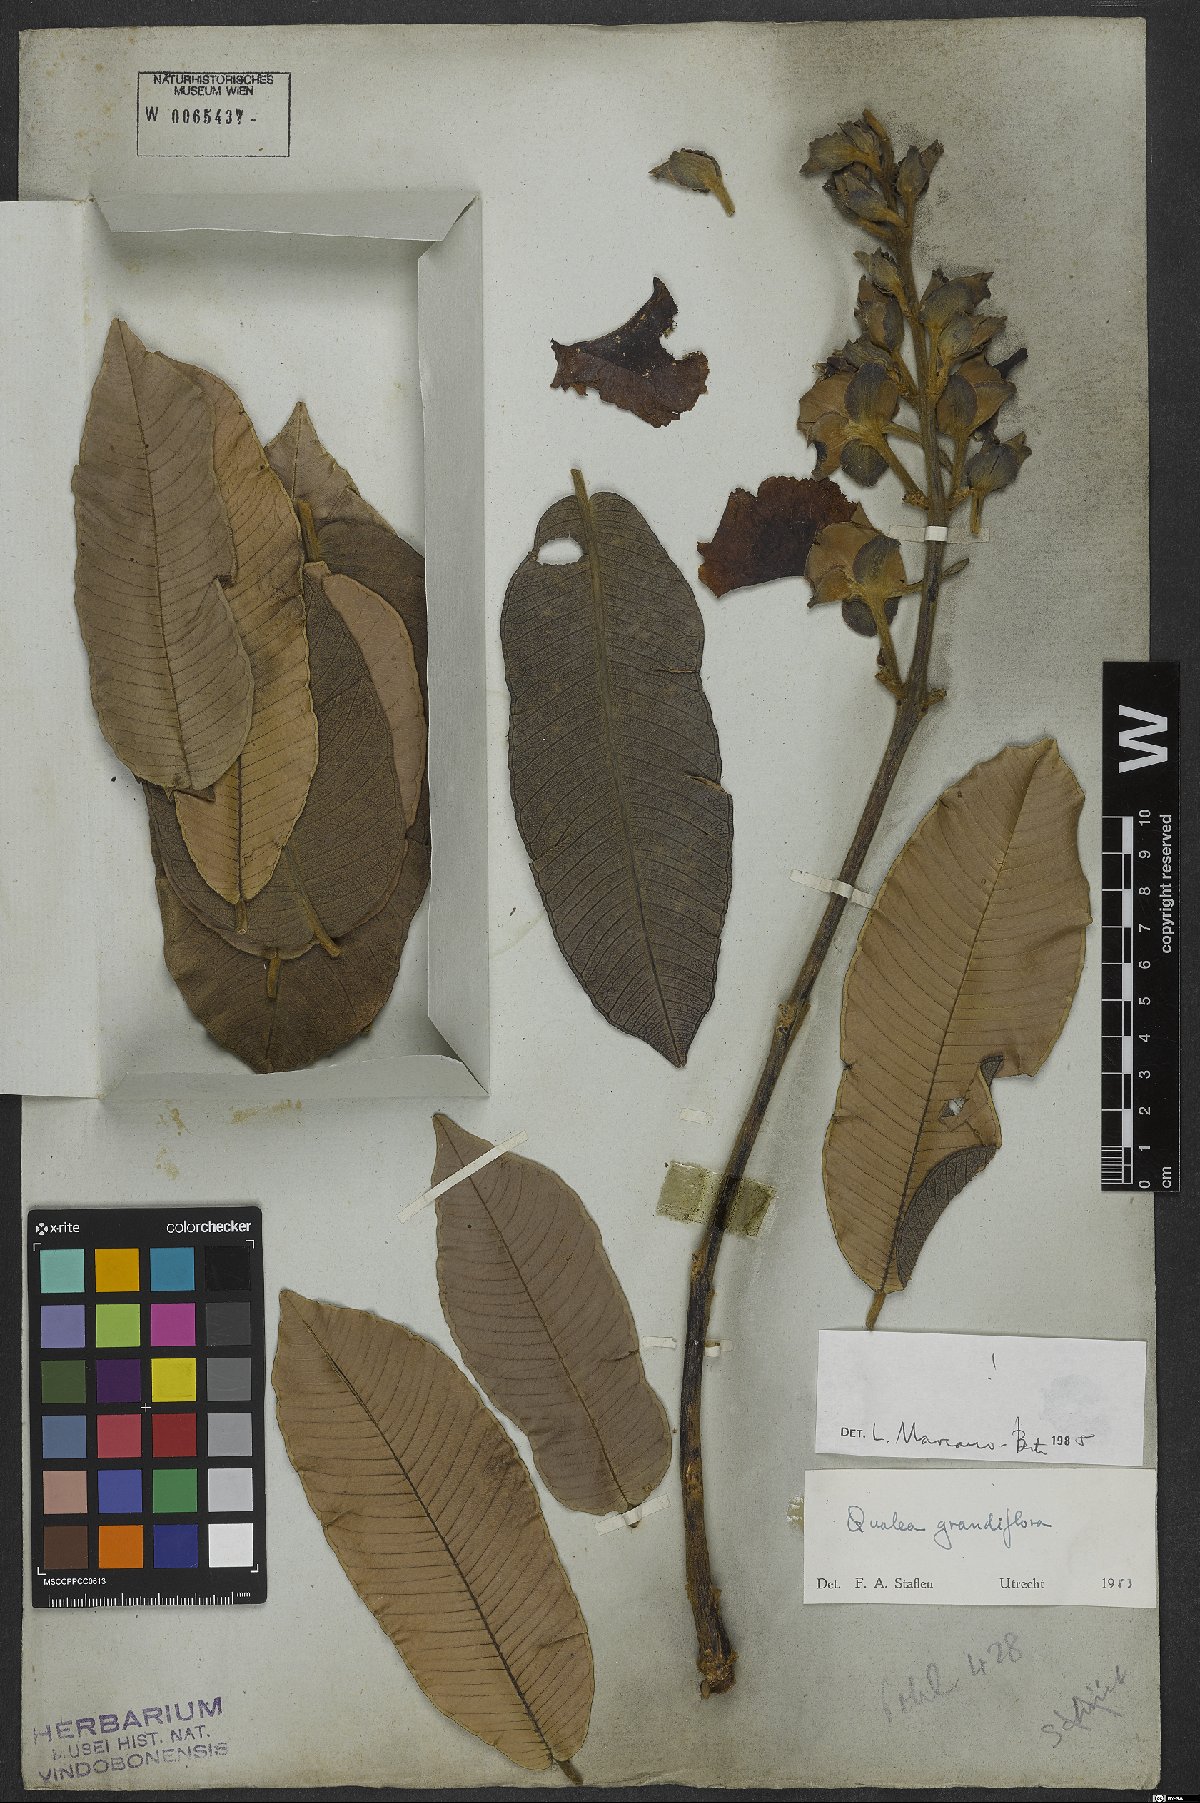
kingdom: Plantae
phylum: Tracheophyta
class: Magnoliopsida
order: Myrtales
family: Vochysiaceae
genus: Qualea
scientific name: Qualea grandiflora
